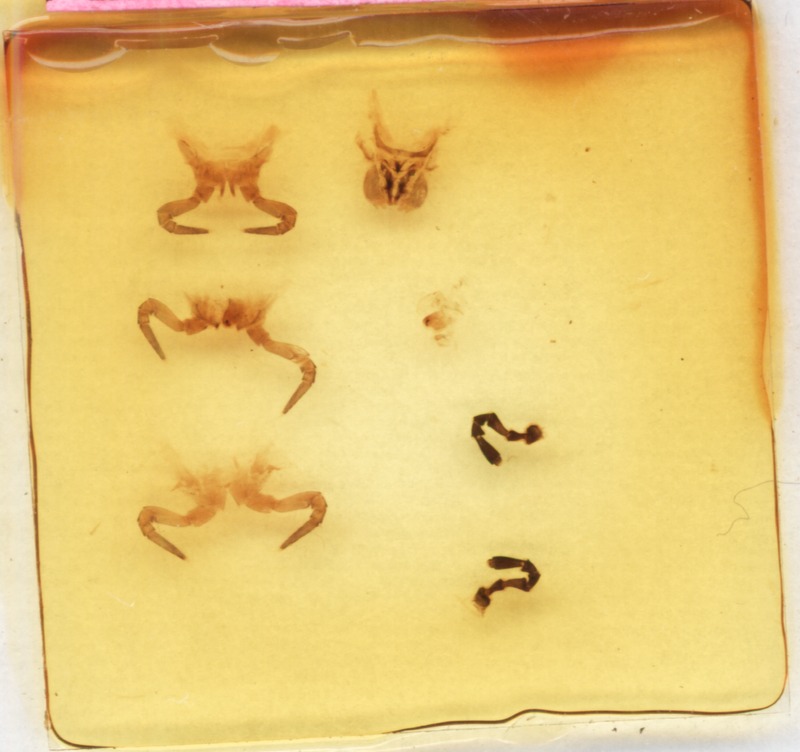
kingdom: Animalia
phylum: Arthropoda
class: Diplopoda
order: Glomerida
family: Glomeridae
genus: Loboglomeris
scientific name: Loboglomeris rugifera
